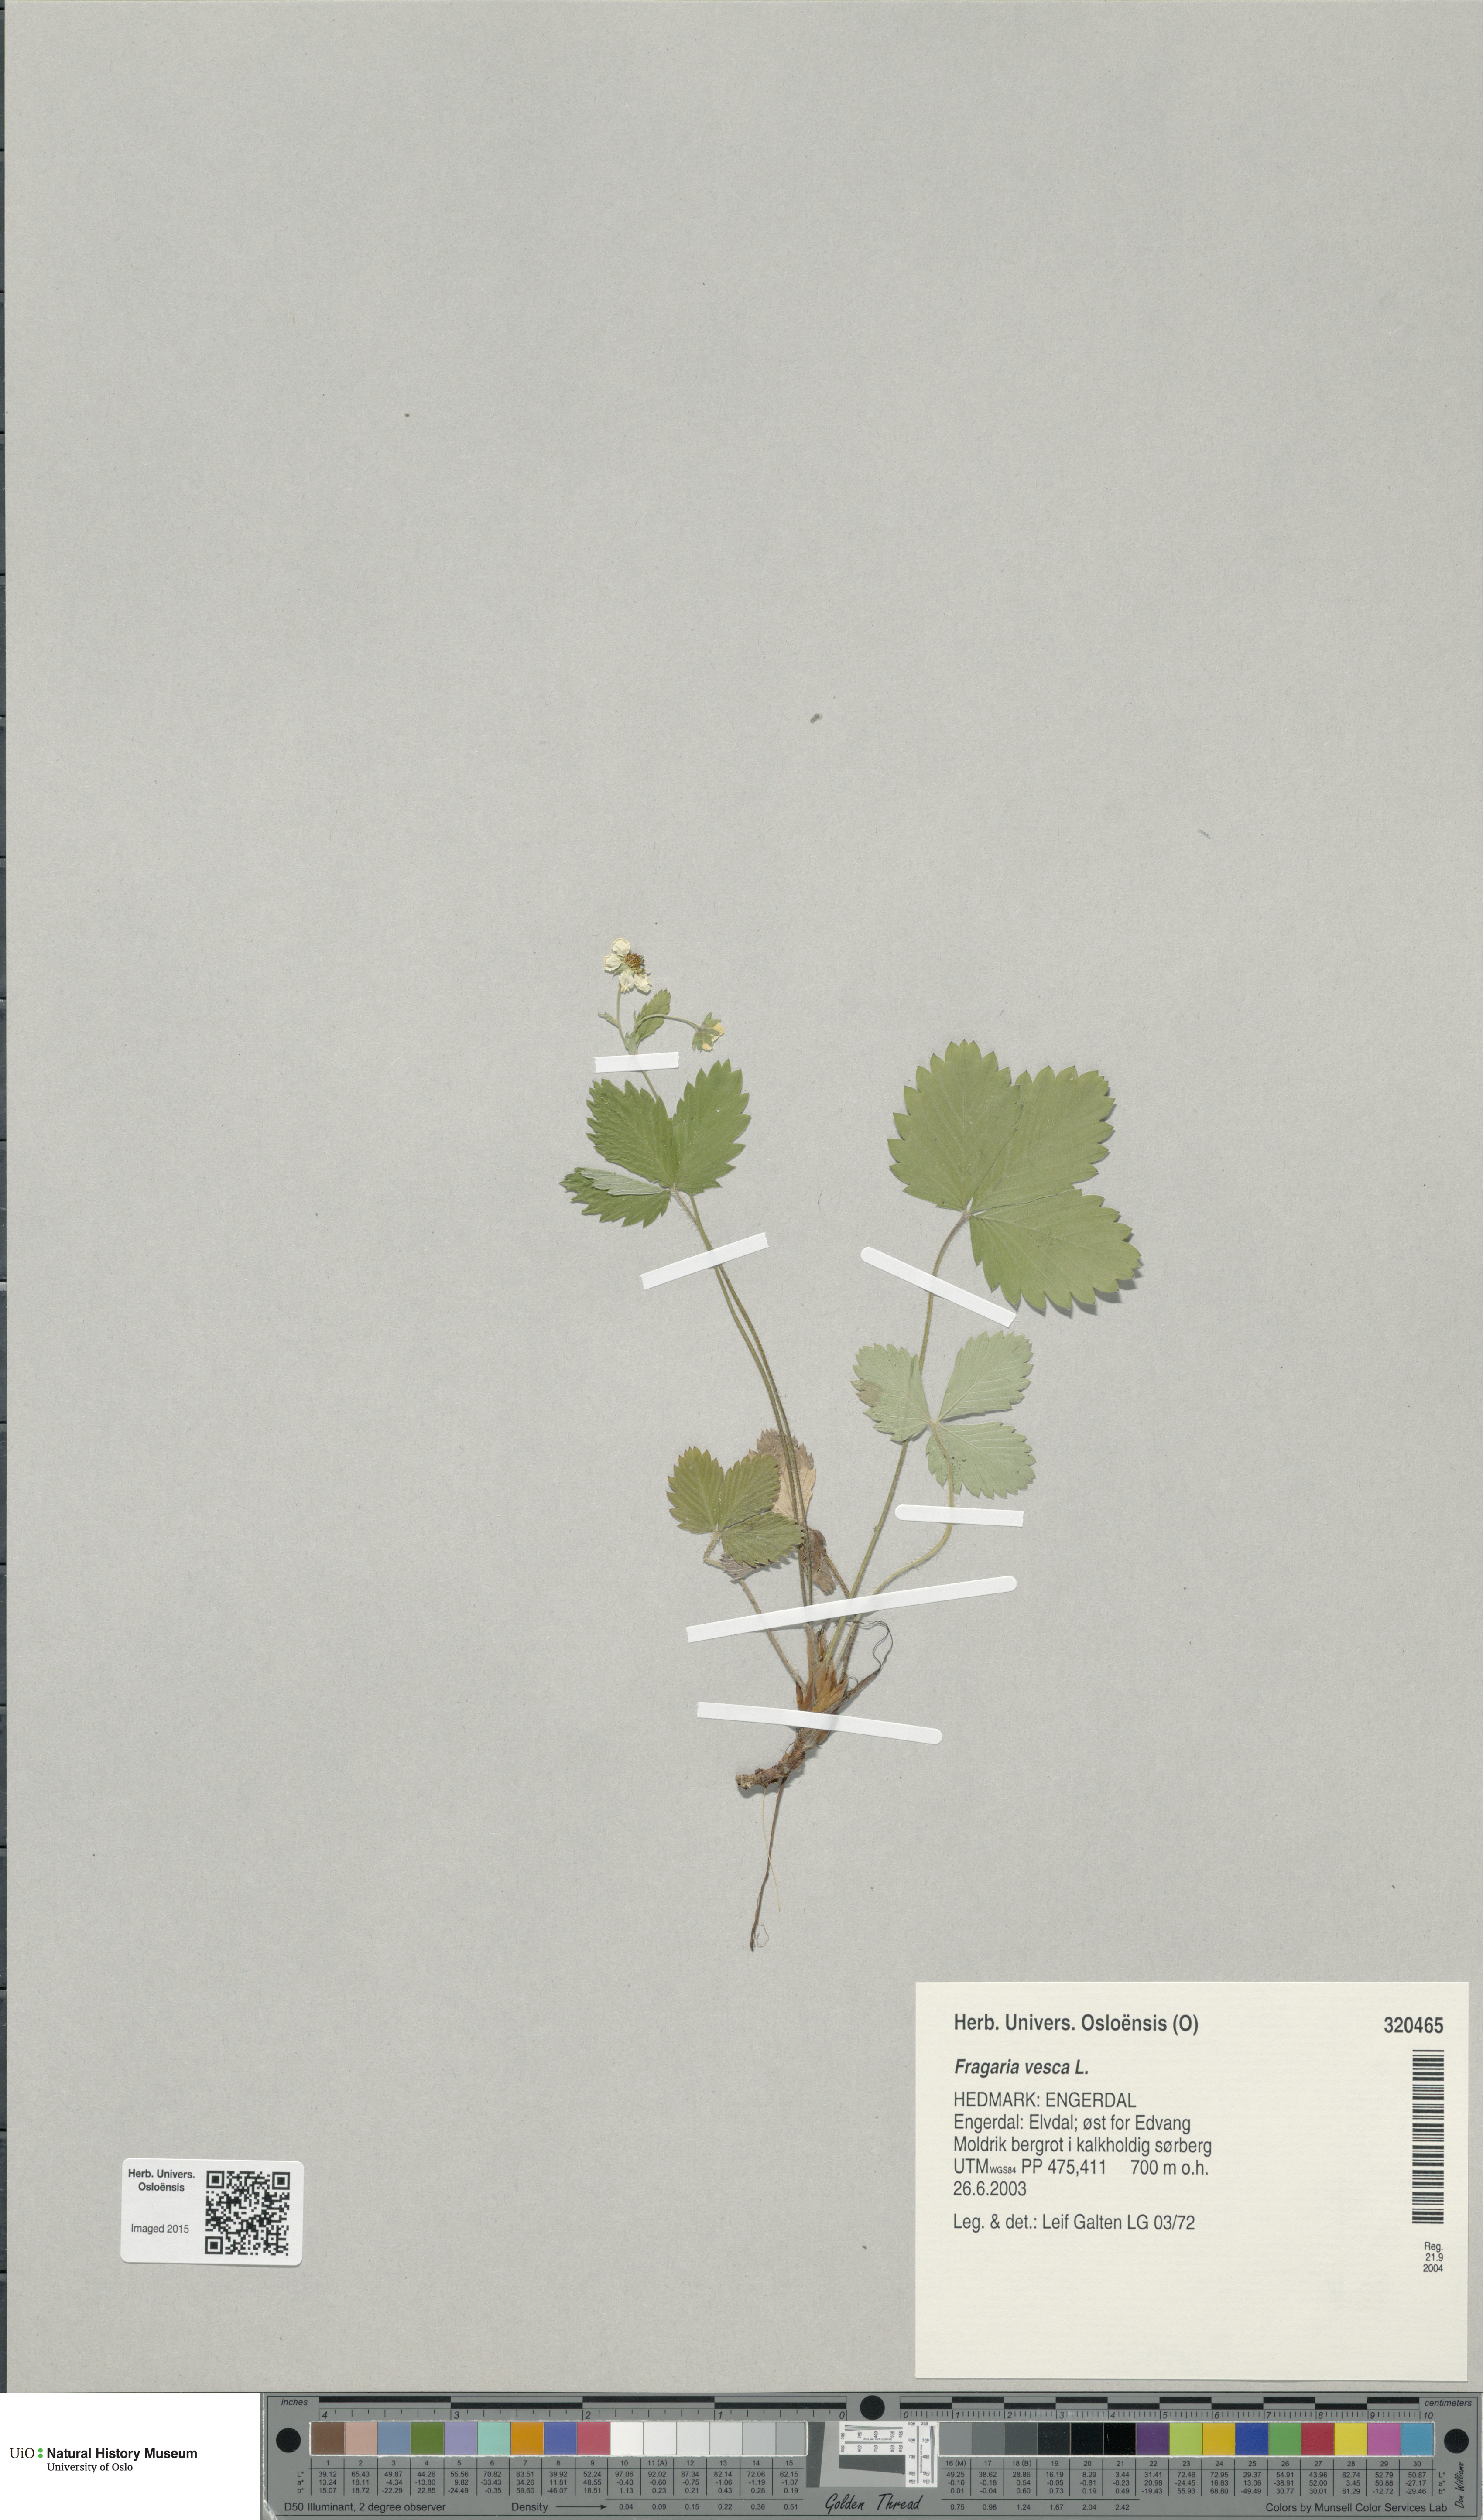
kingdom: Plantae
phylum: Tracheophyta
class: Magnoliopsida
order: Rosales
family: Rosaceae
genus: Fragaria
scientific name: Fragaria vesca
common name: Wild strawberry
